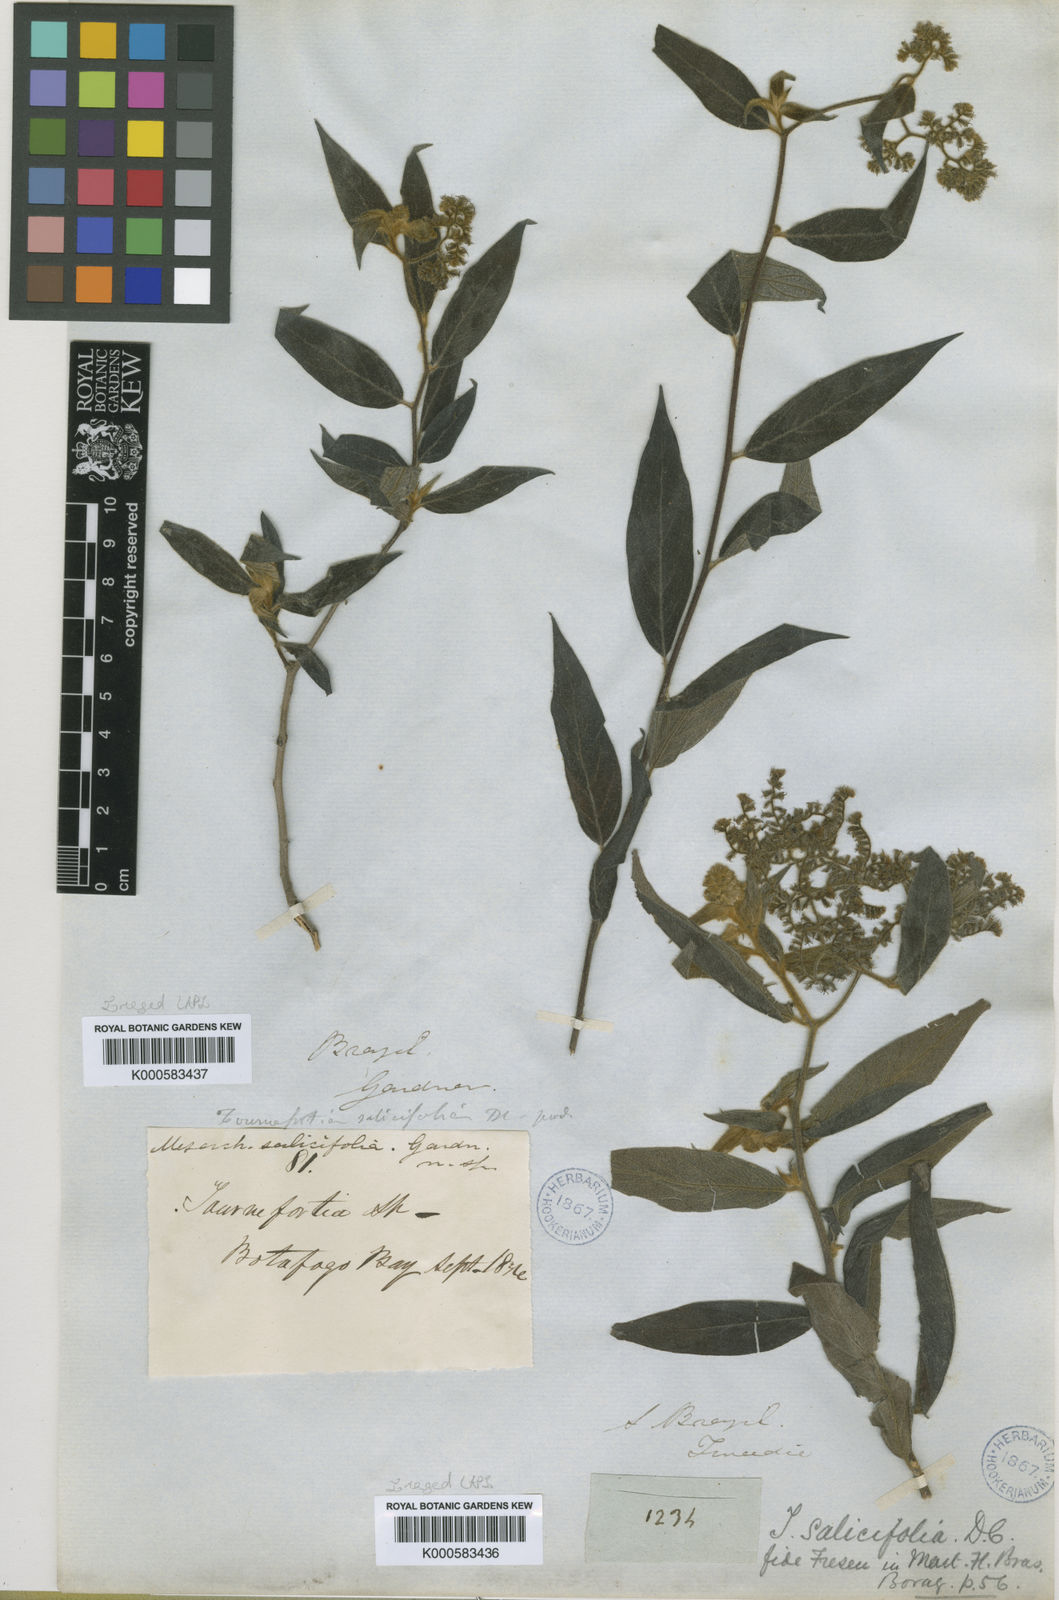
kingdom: Plantae
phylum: Tracheophyta
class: Magnoliopsida
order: Boraginales
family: Heliotropiaceae
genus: Myriopus
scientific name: Myriopus salicifolius
